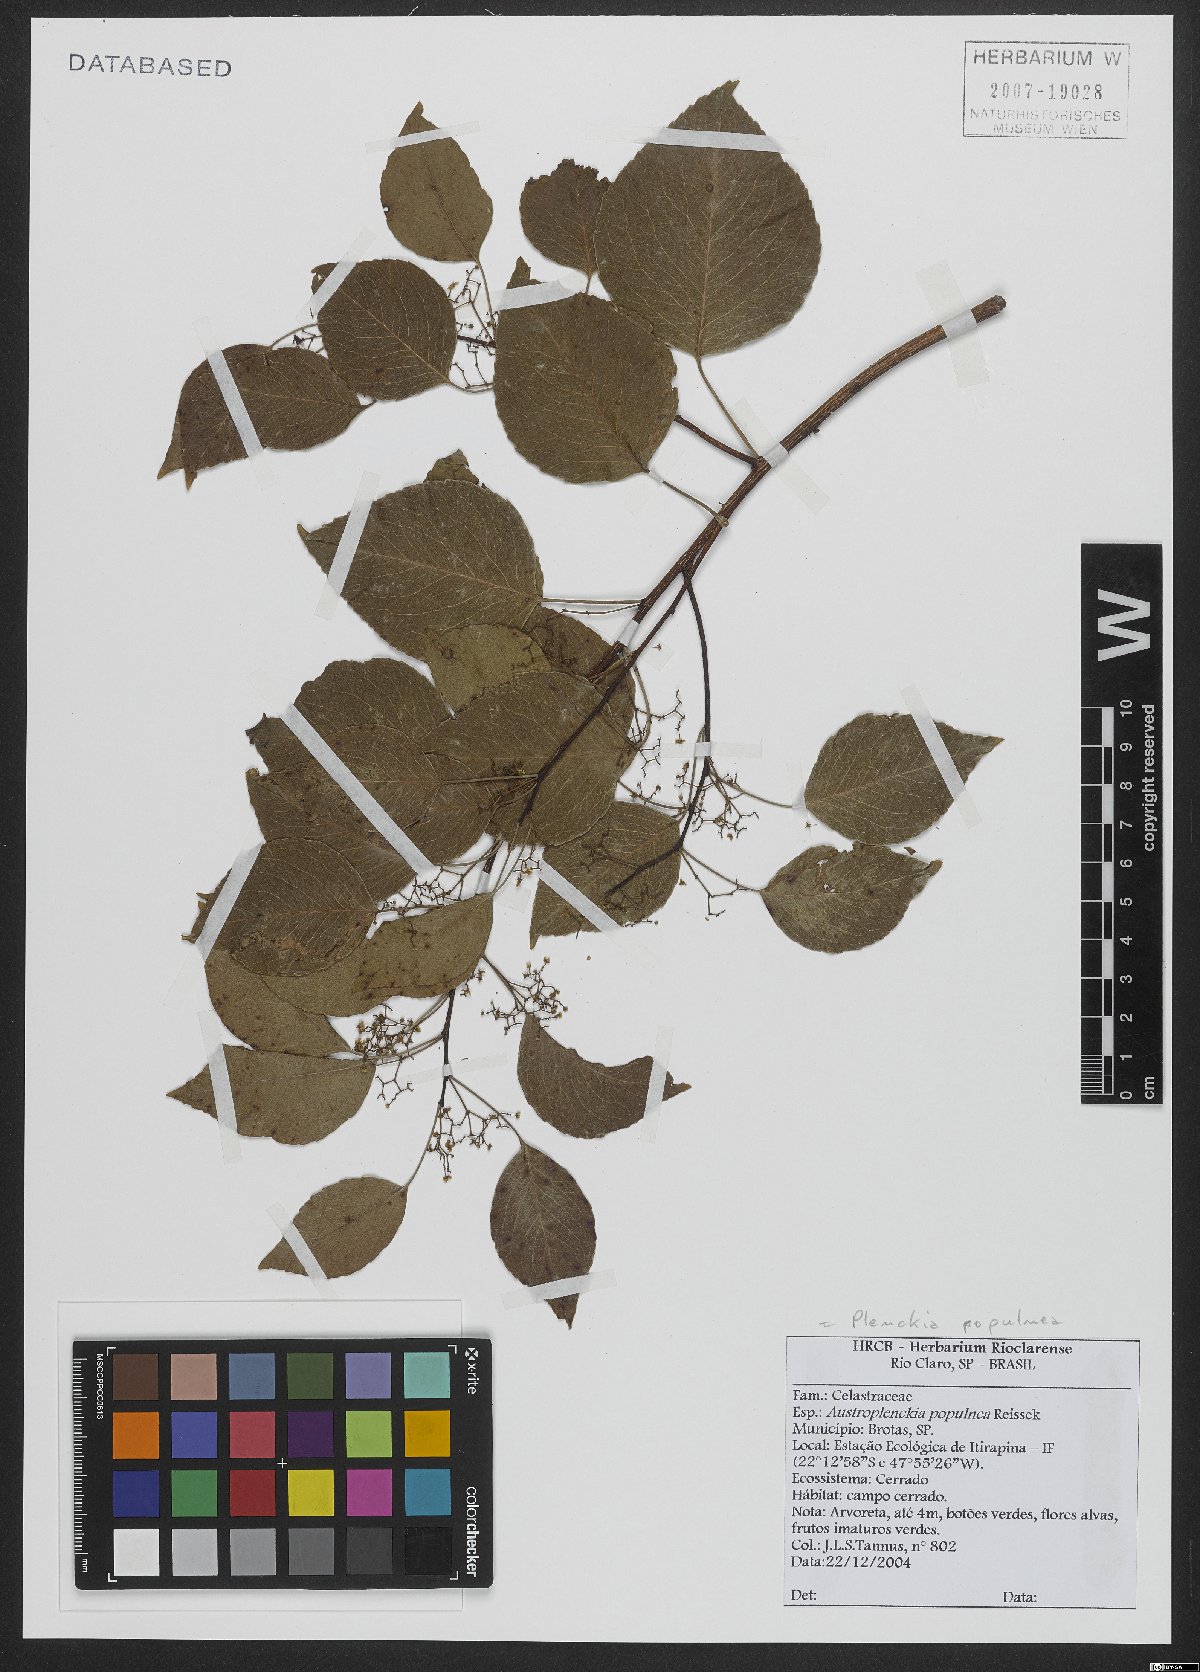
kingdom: Plantae
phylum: Tracheophyta
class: Magnoliopsida
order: Celastrales
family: Celastraceae
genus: Plenckia
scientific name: Plenckia populnea
